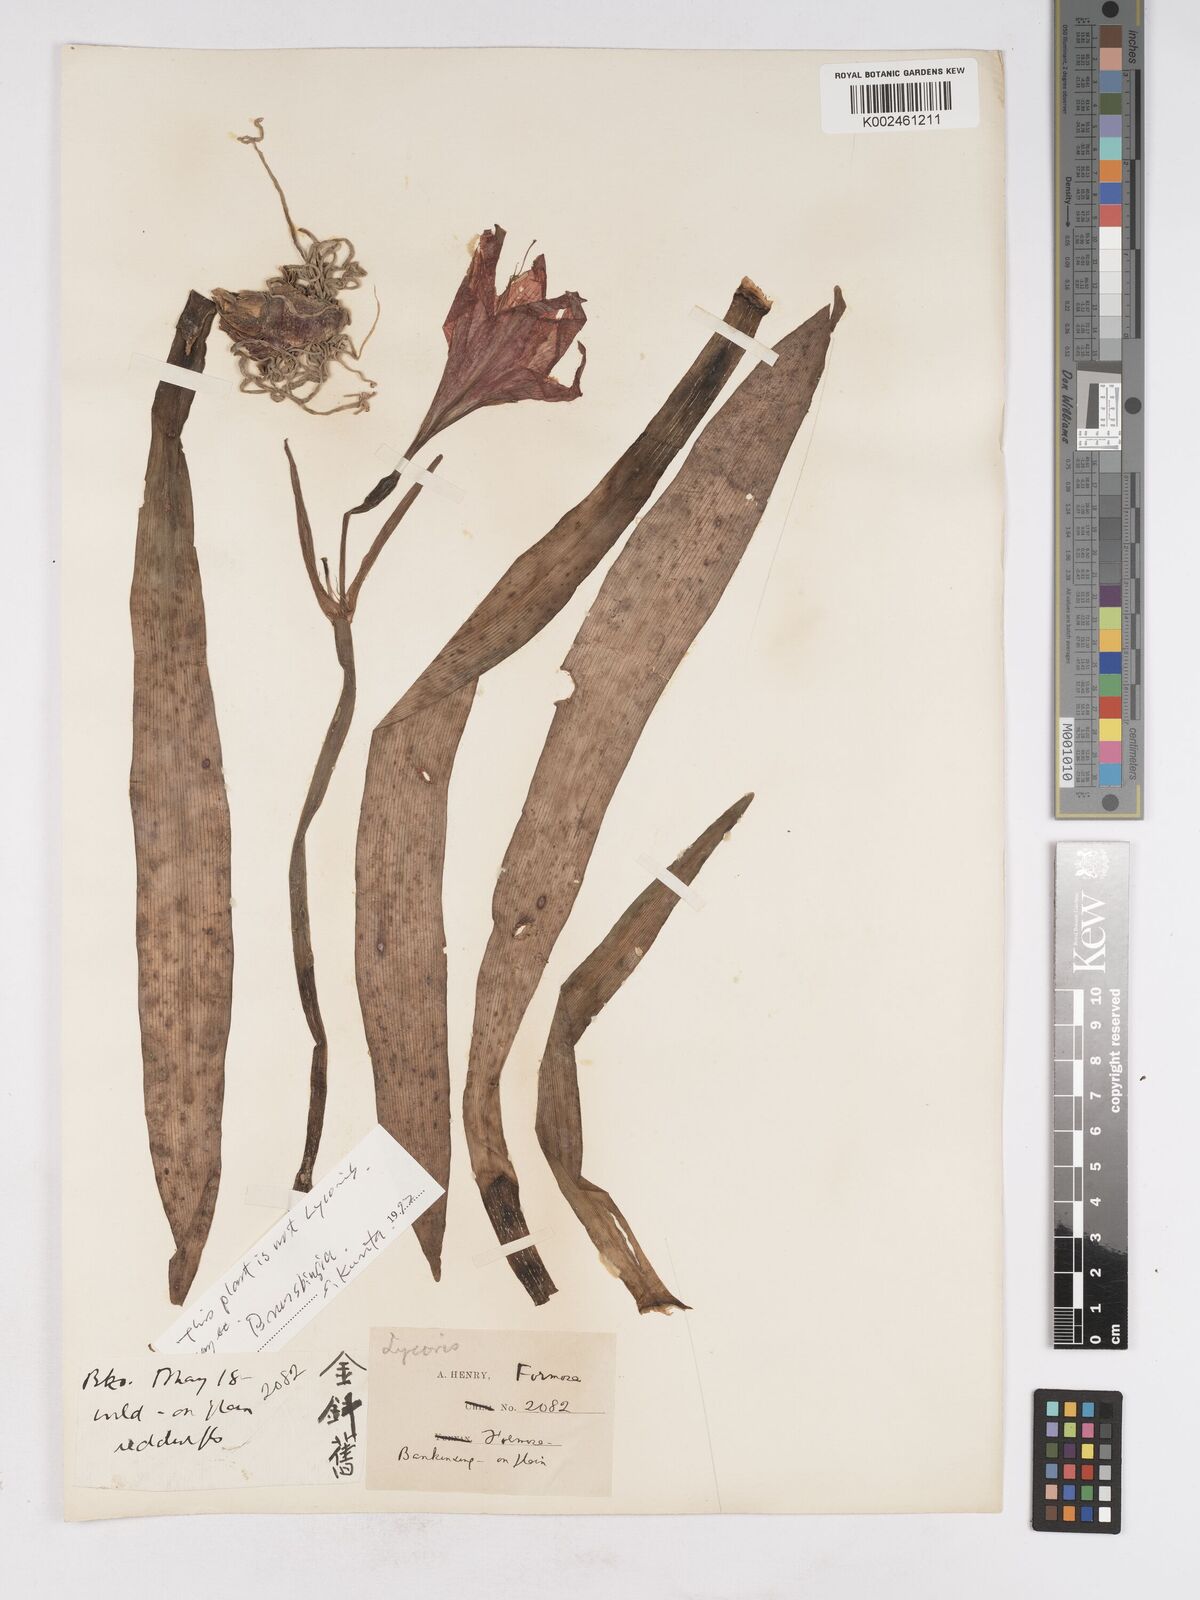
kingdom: Plantae
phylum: Tracheophyta
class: Liliopsida
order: Asparagales
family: Amaryllidaceae
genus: Lycoris
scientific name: Lycoris
